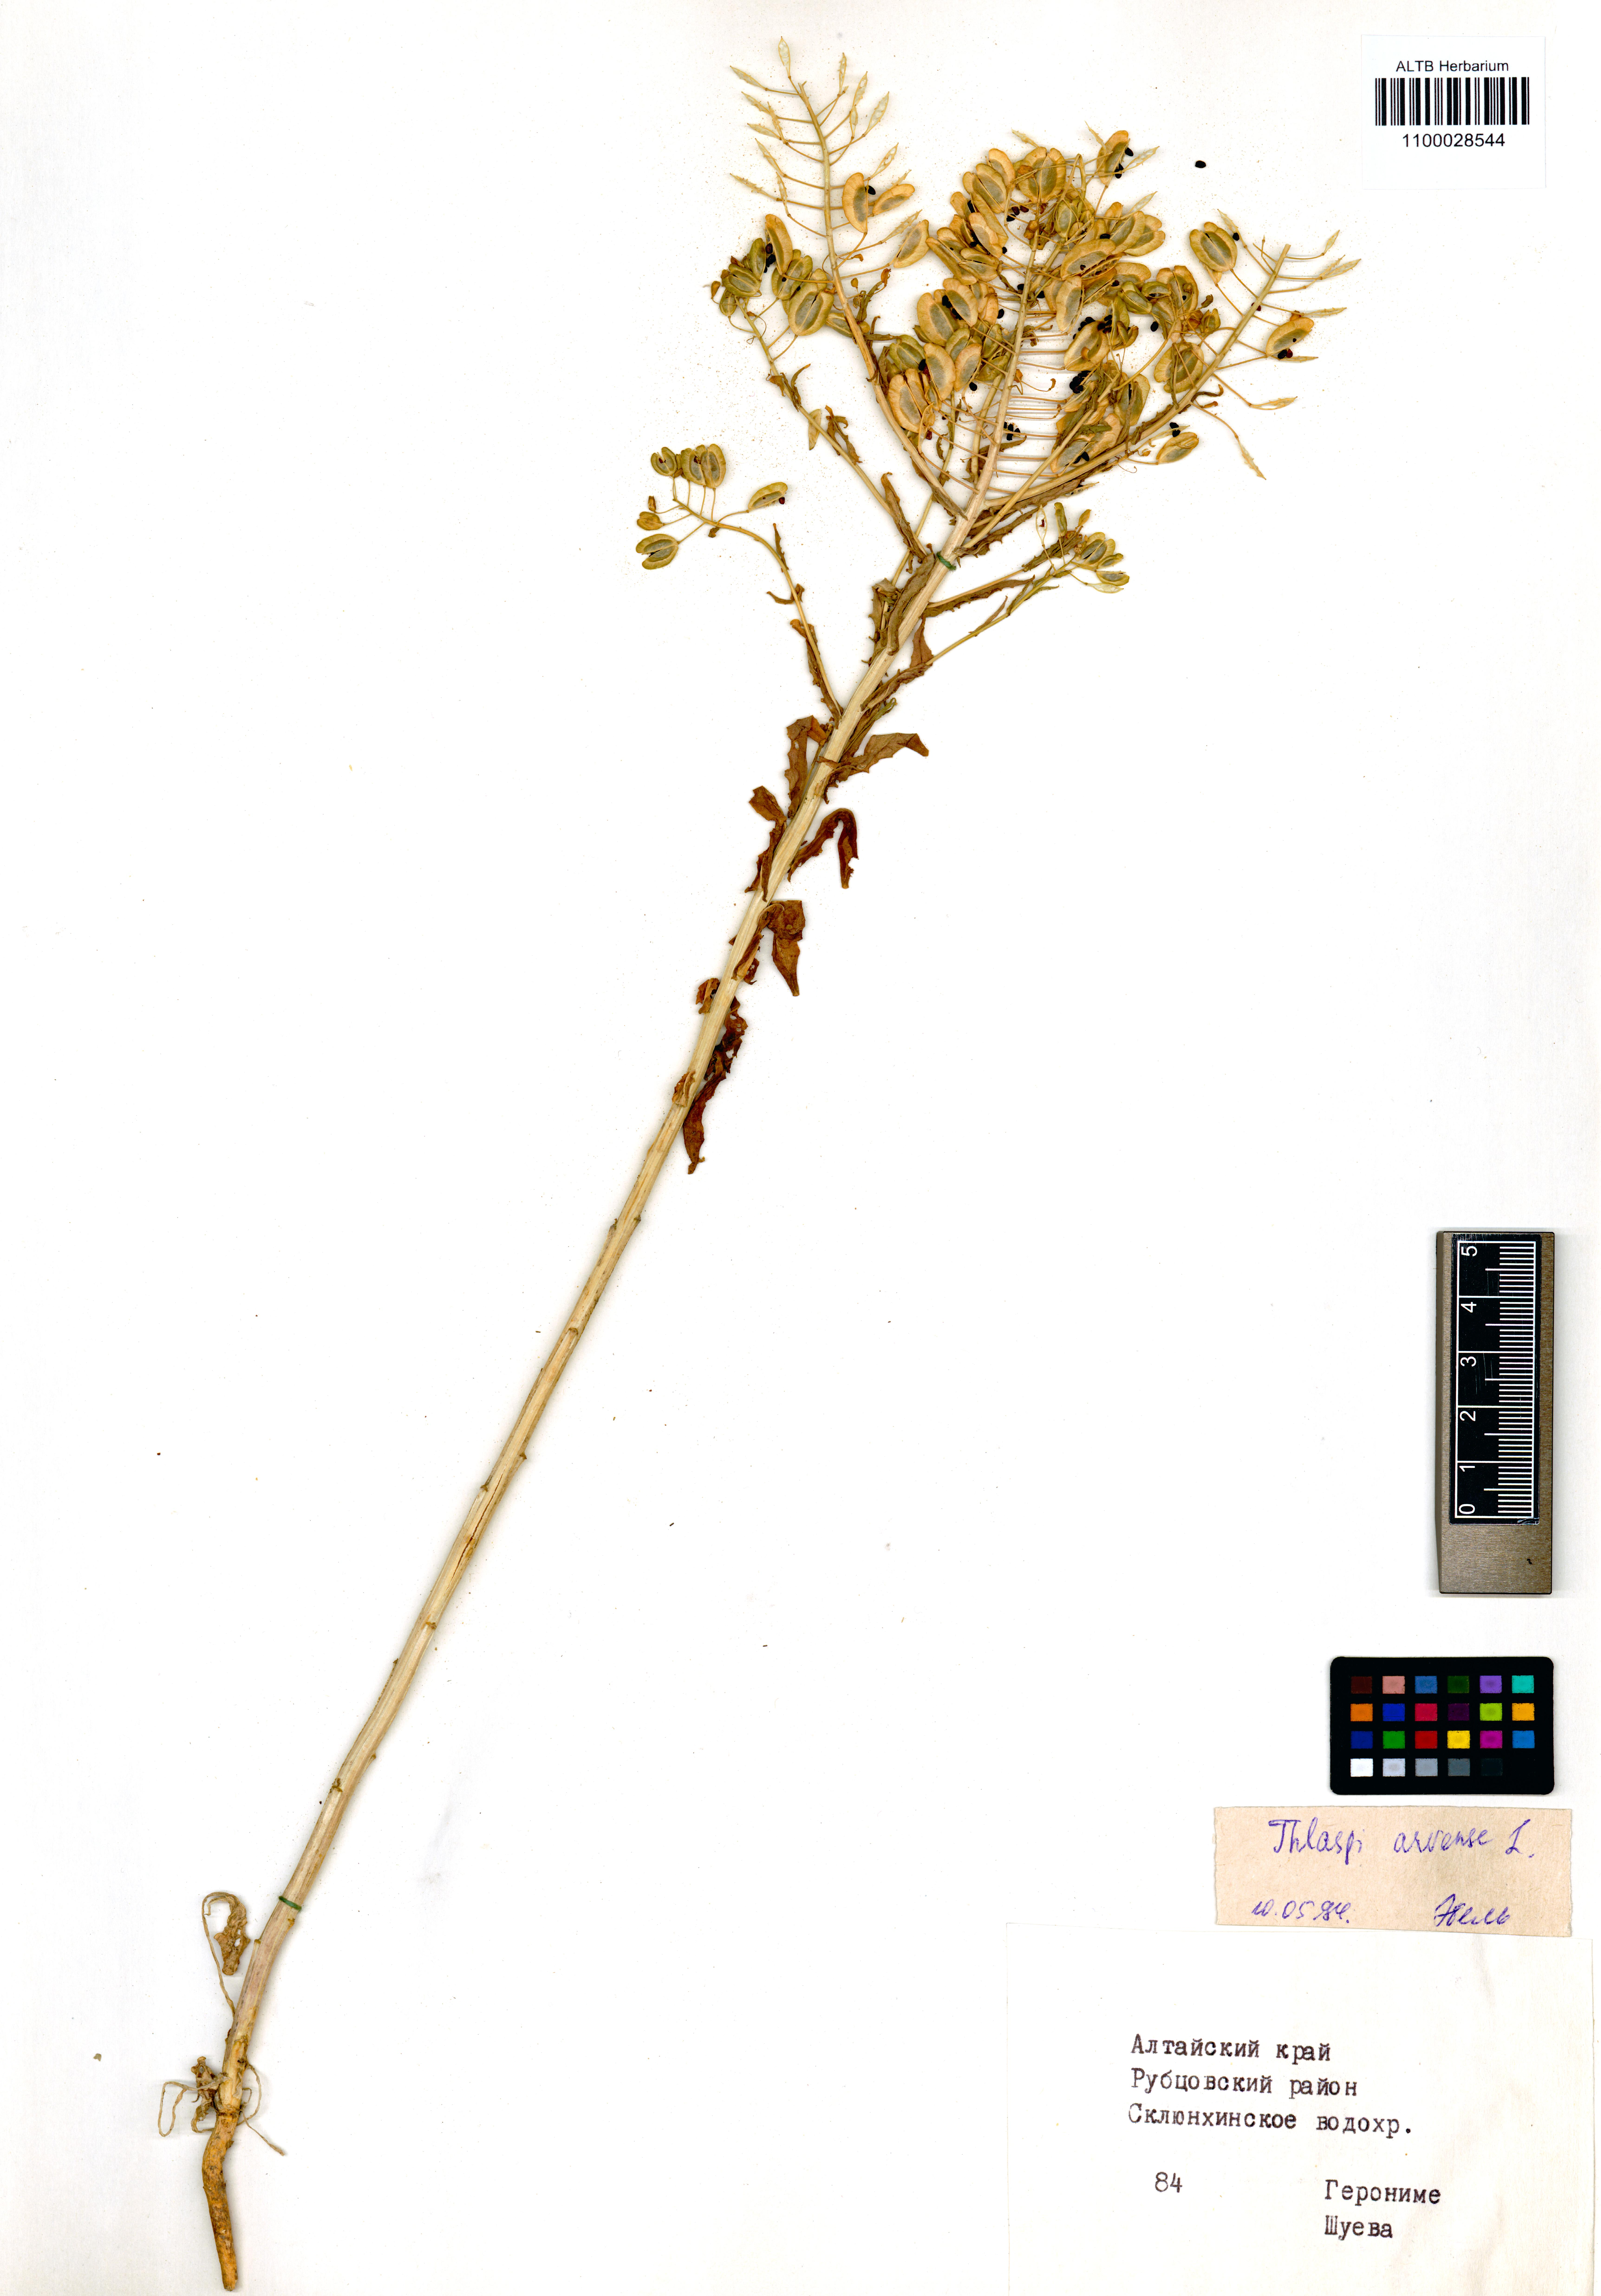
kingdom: Plantae
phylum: Tracheophyta
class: Magnoliopsida
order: Brassicales
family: Brassicaceae
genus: Thlaspi
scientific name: Thlaspi arvense
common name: Field pennycress
